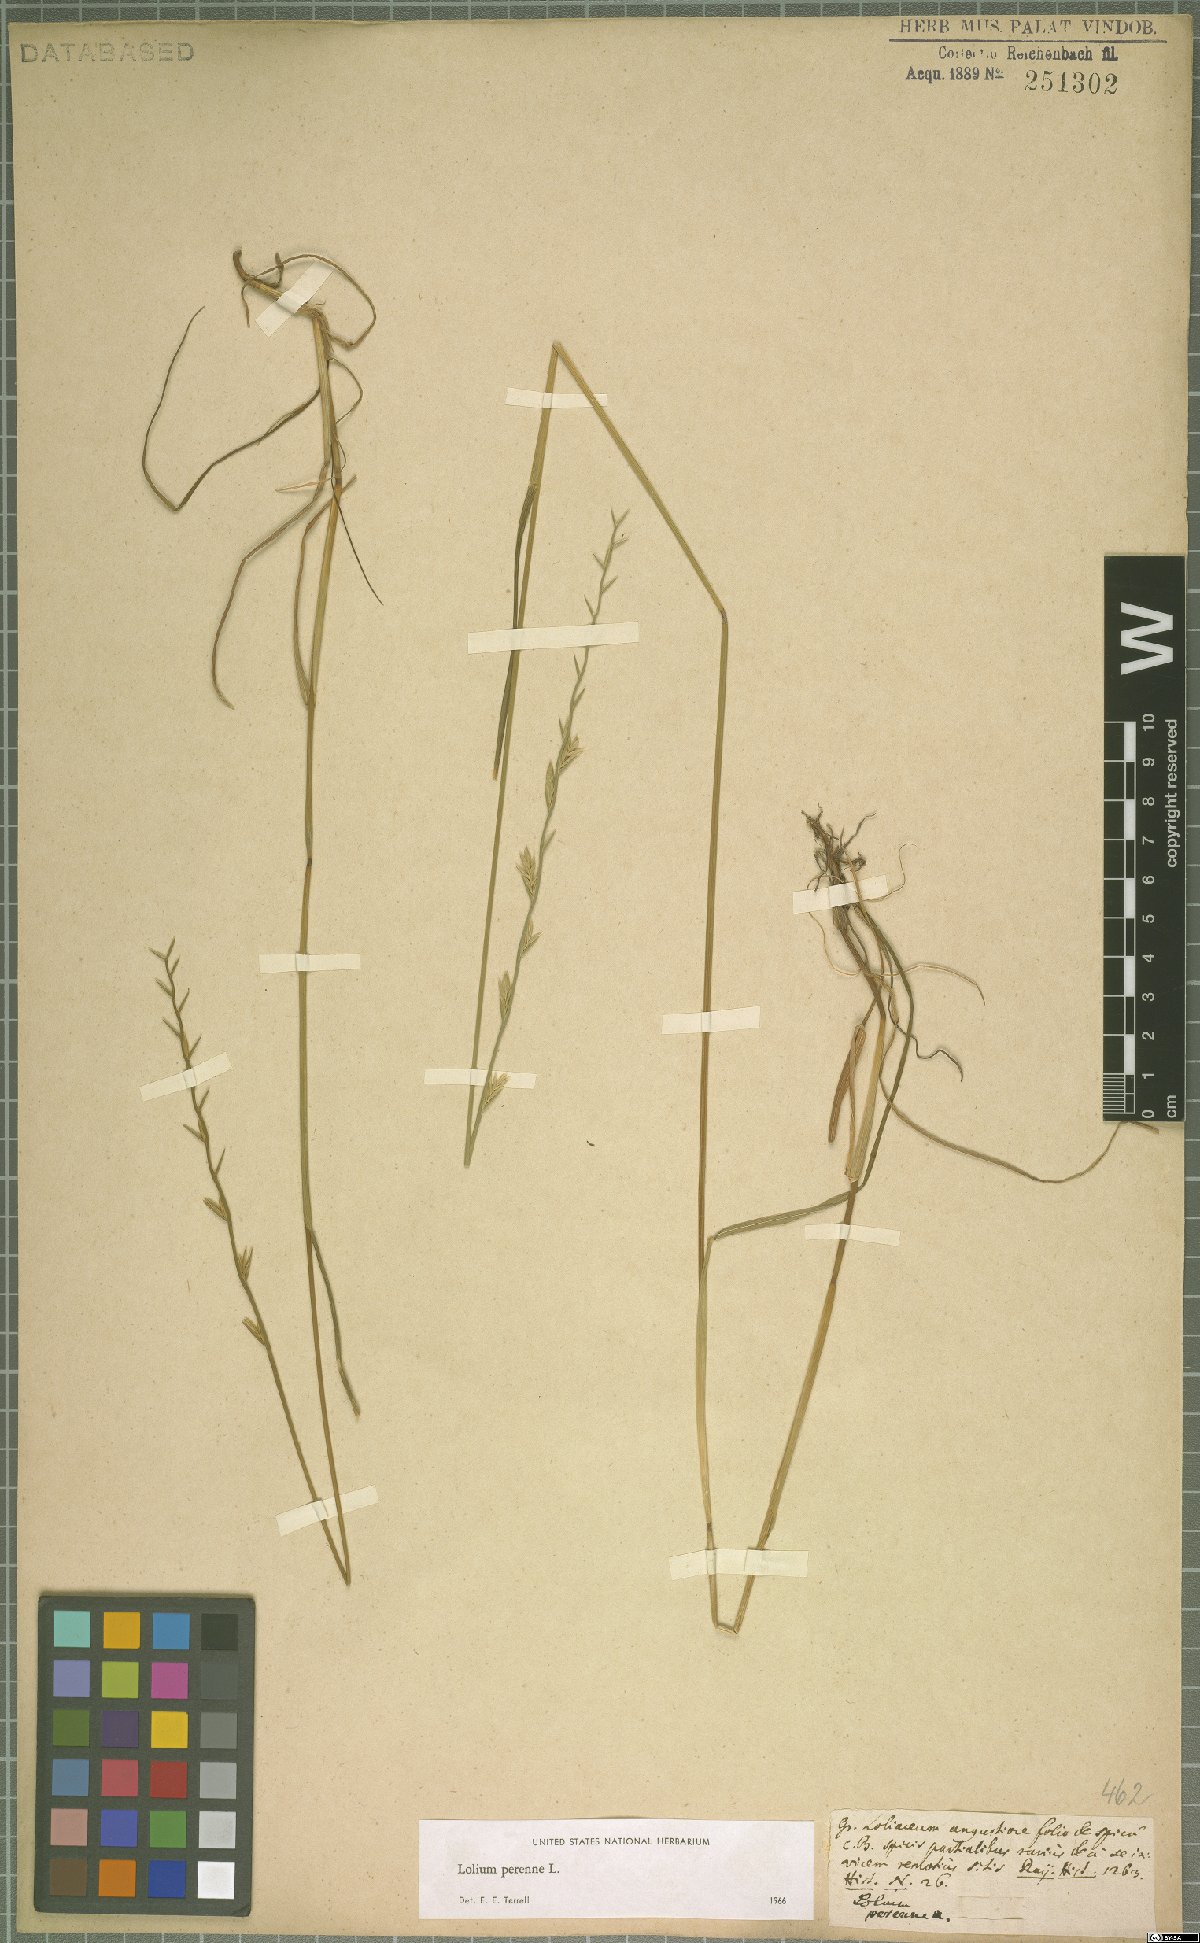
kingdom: Plantae
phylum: Tracheophyta
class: Liliopsida
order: Poales
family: Poaceae
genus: Lolium
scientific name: Lolium perenne
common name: Perennial ryegrass
